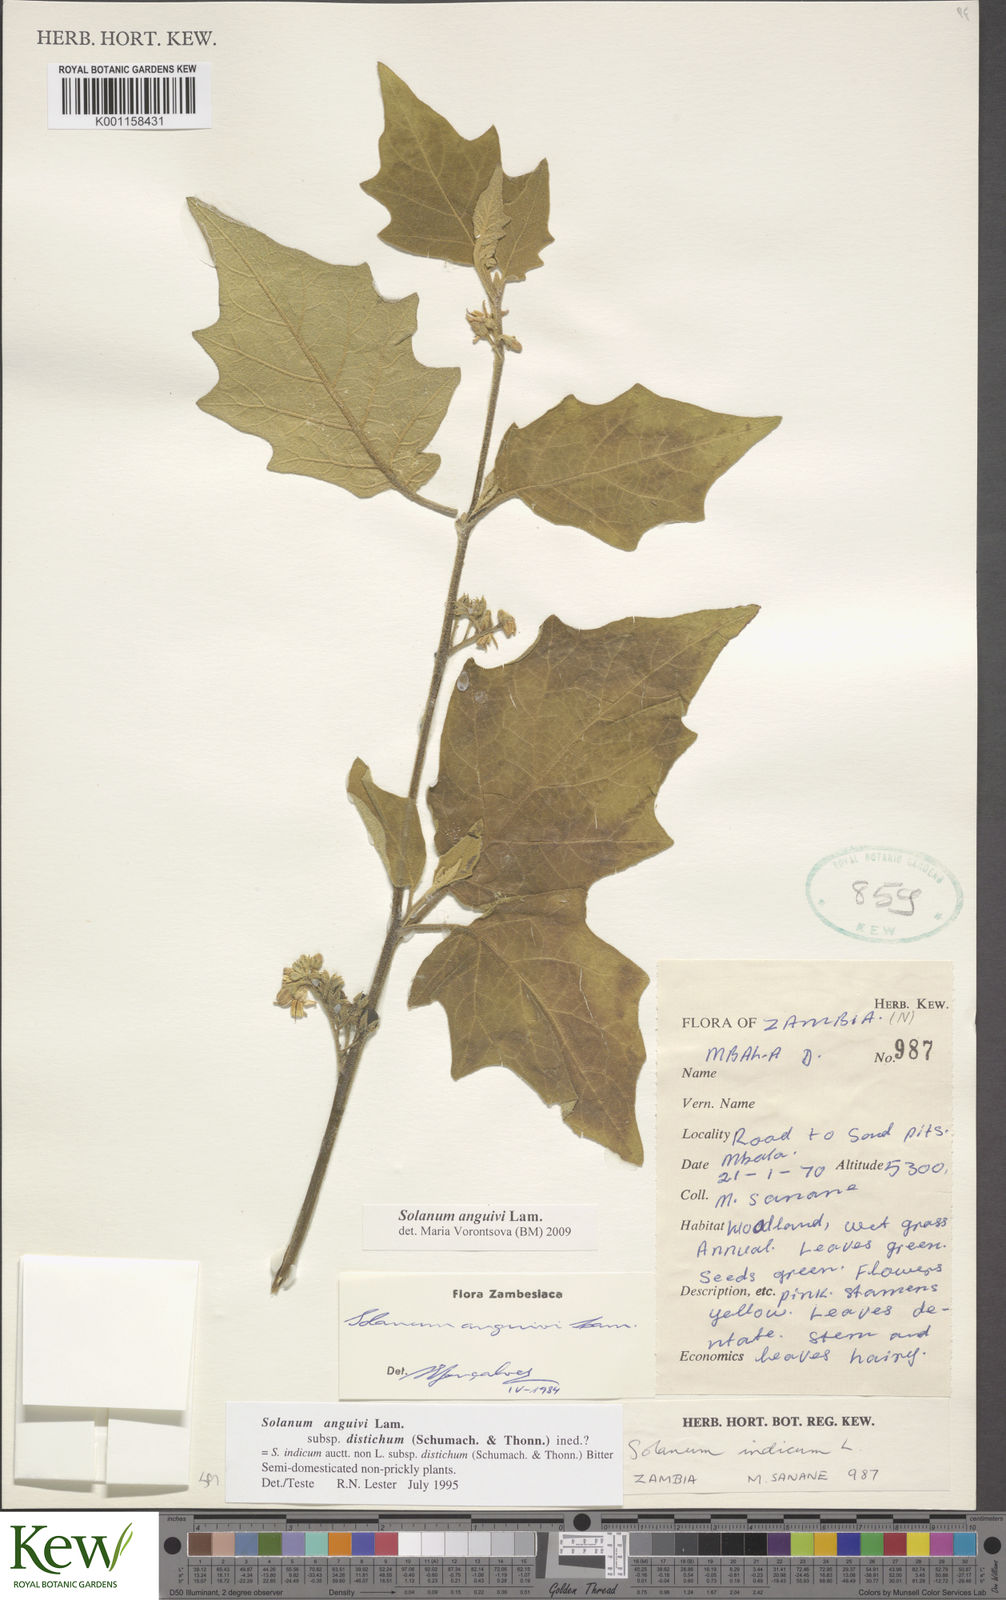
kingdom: Plantae
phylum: Tracheophyta
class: Magnoliopsida
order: Solanales
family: Solanaceae
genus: Solanum
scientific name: Solanum anguivi
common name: Forest bitterberry
